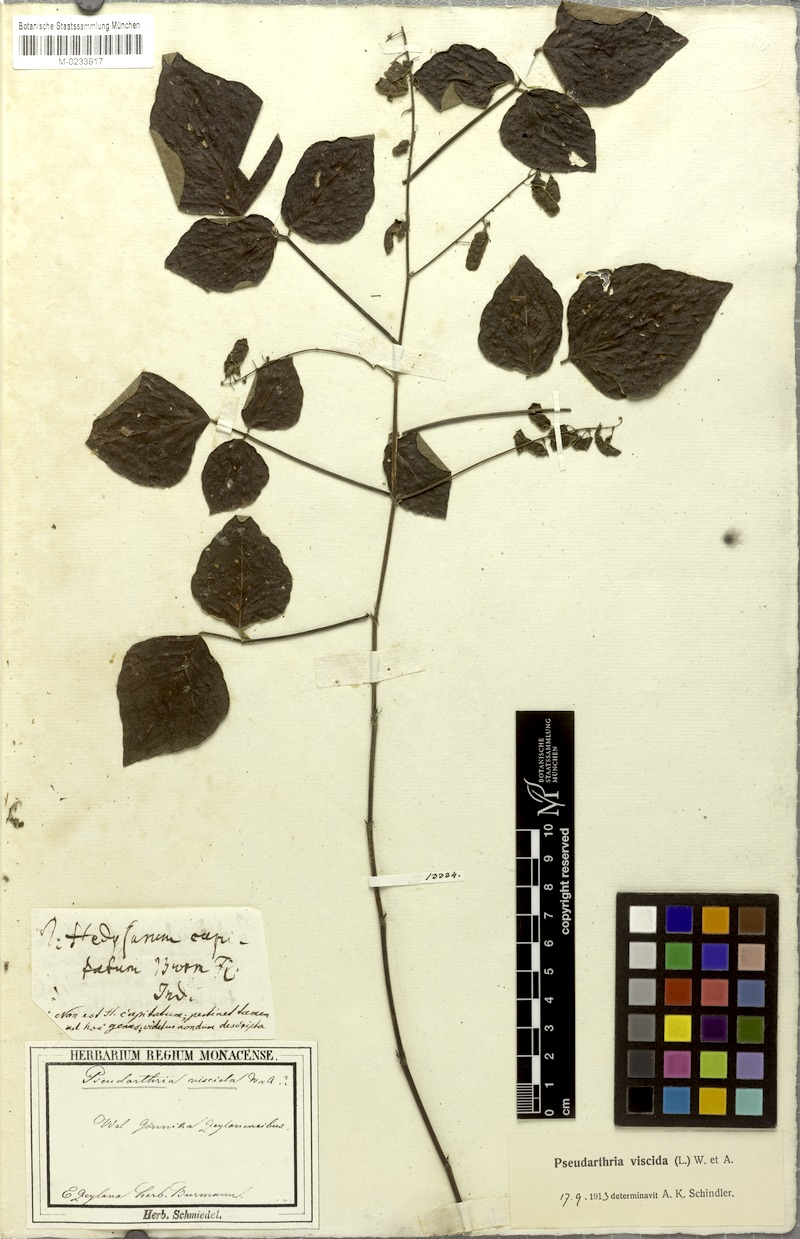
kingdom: Plantae
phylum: Tracheophyta
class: Magnoliopsida
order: Fabales
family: Fabaceae
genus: Pseudarthria
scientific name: Pseudarthria viscida
